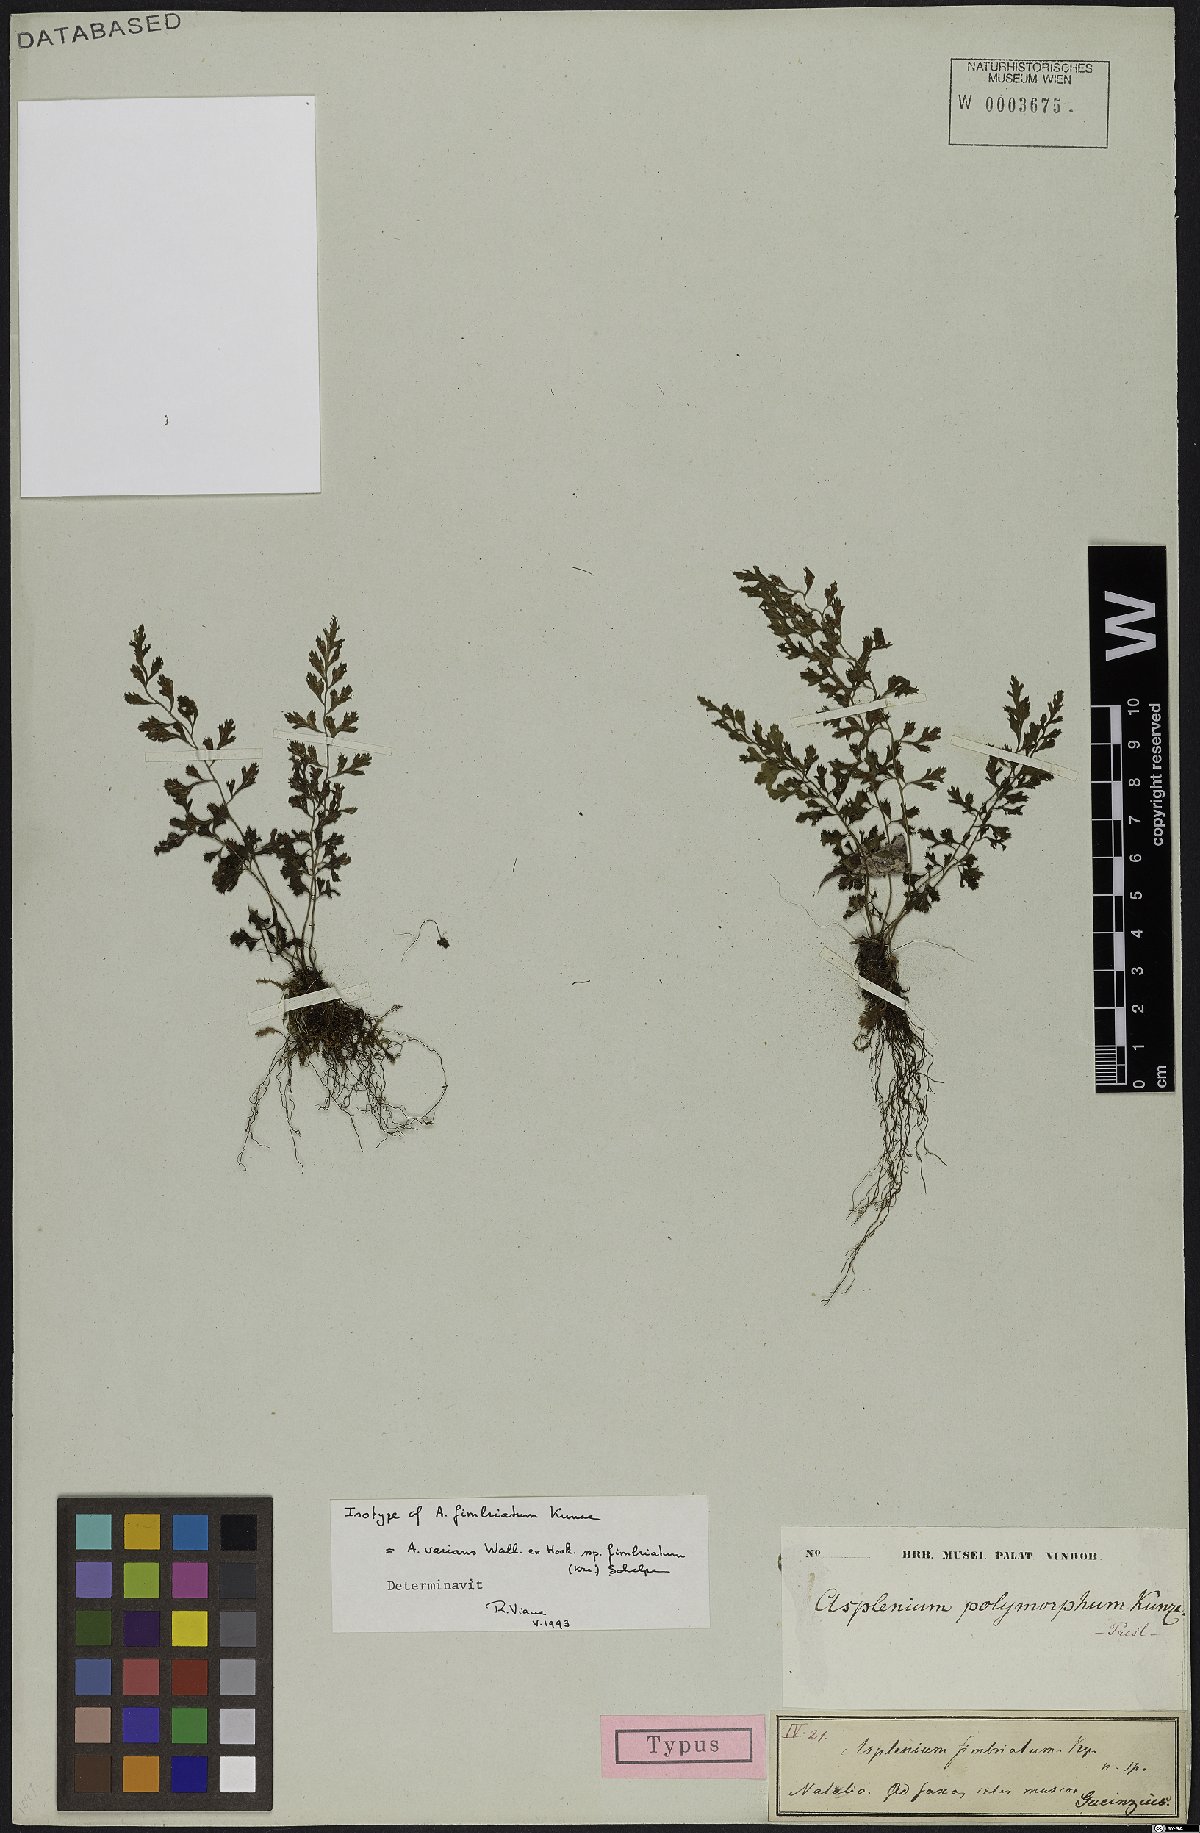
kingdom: Plantae
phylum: Tracheophyta
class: Polypodiopsida
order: Polypodiales
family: Aspleniaceae
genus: Asplenium
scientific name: Asplenium laciniatum
